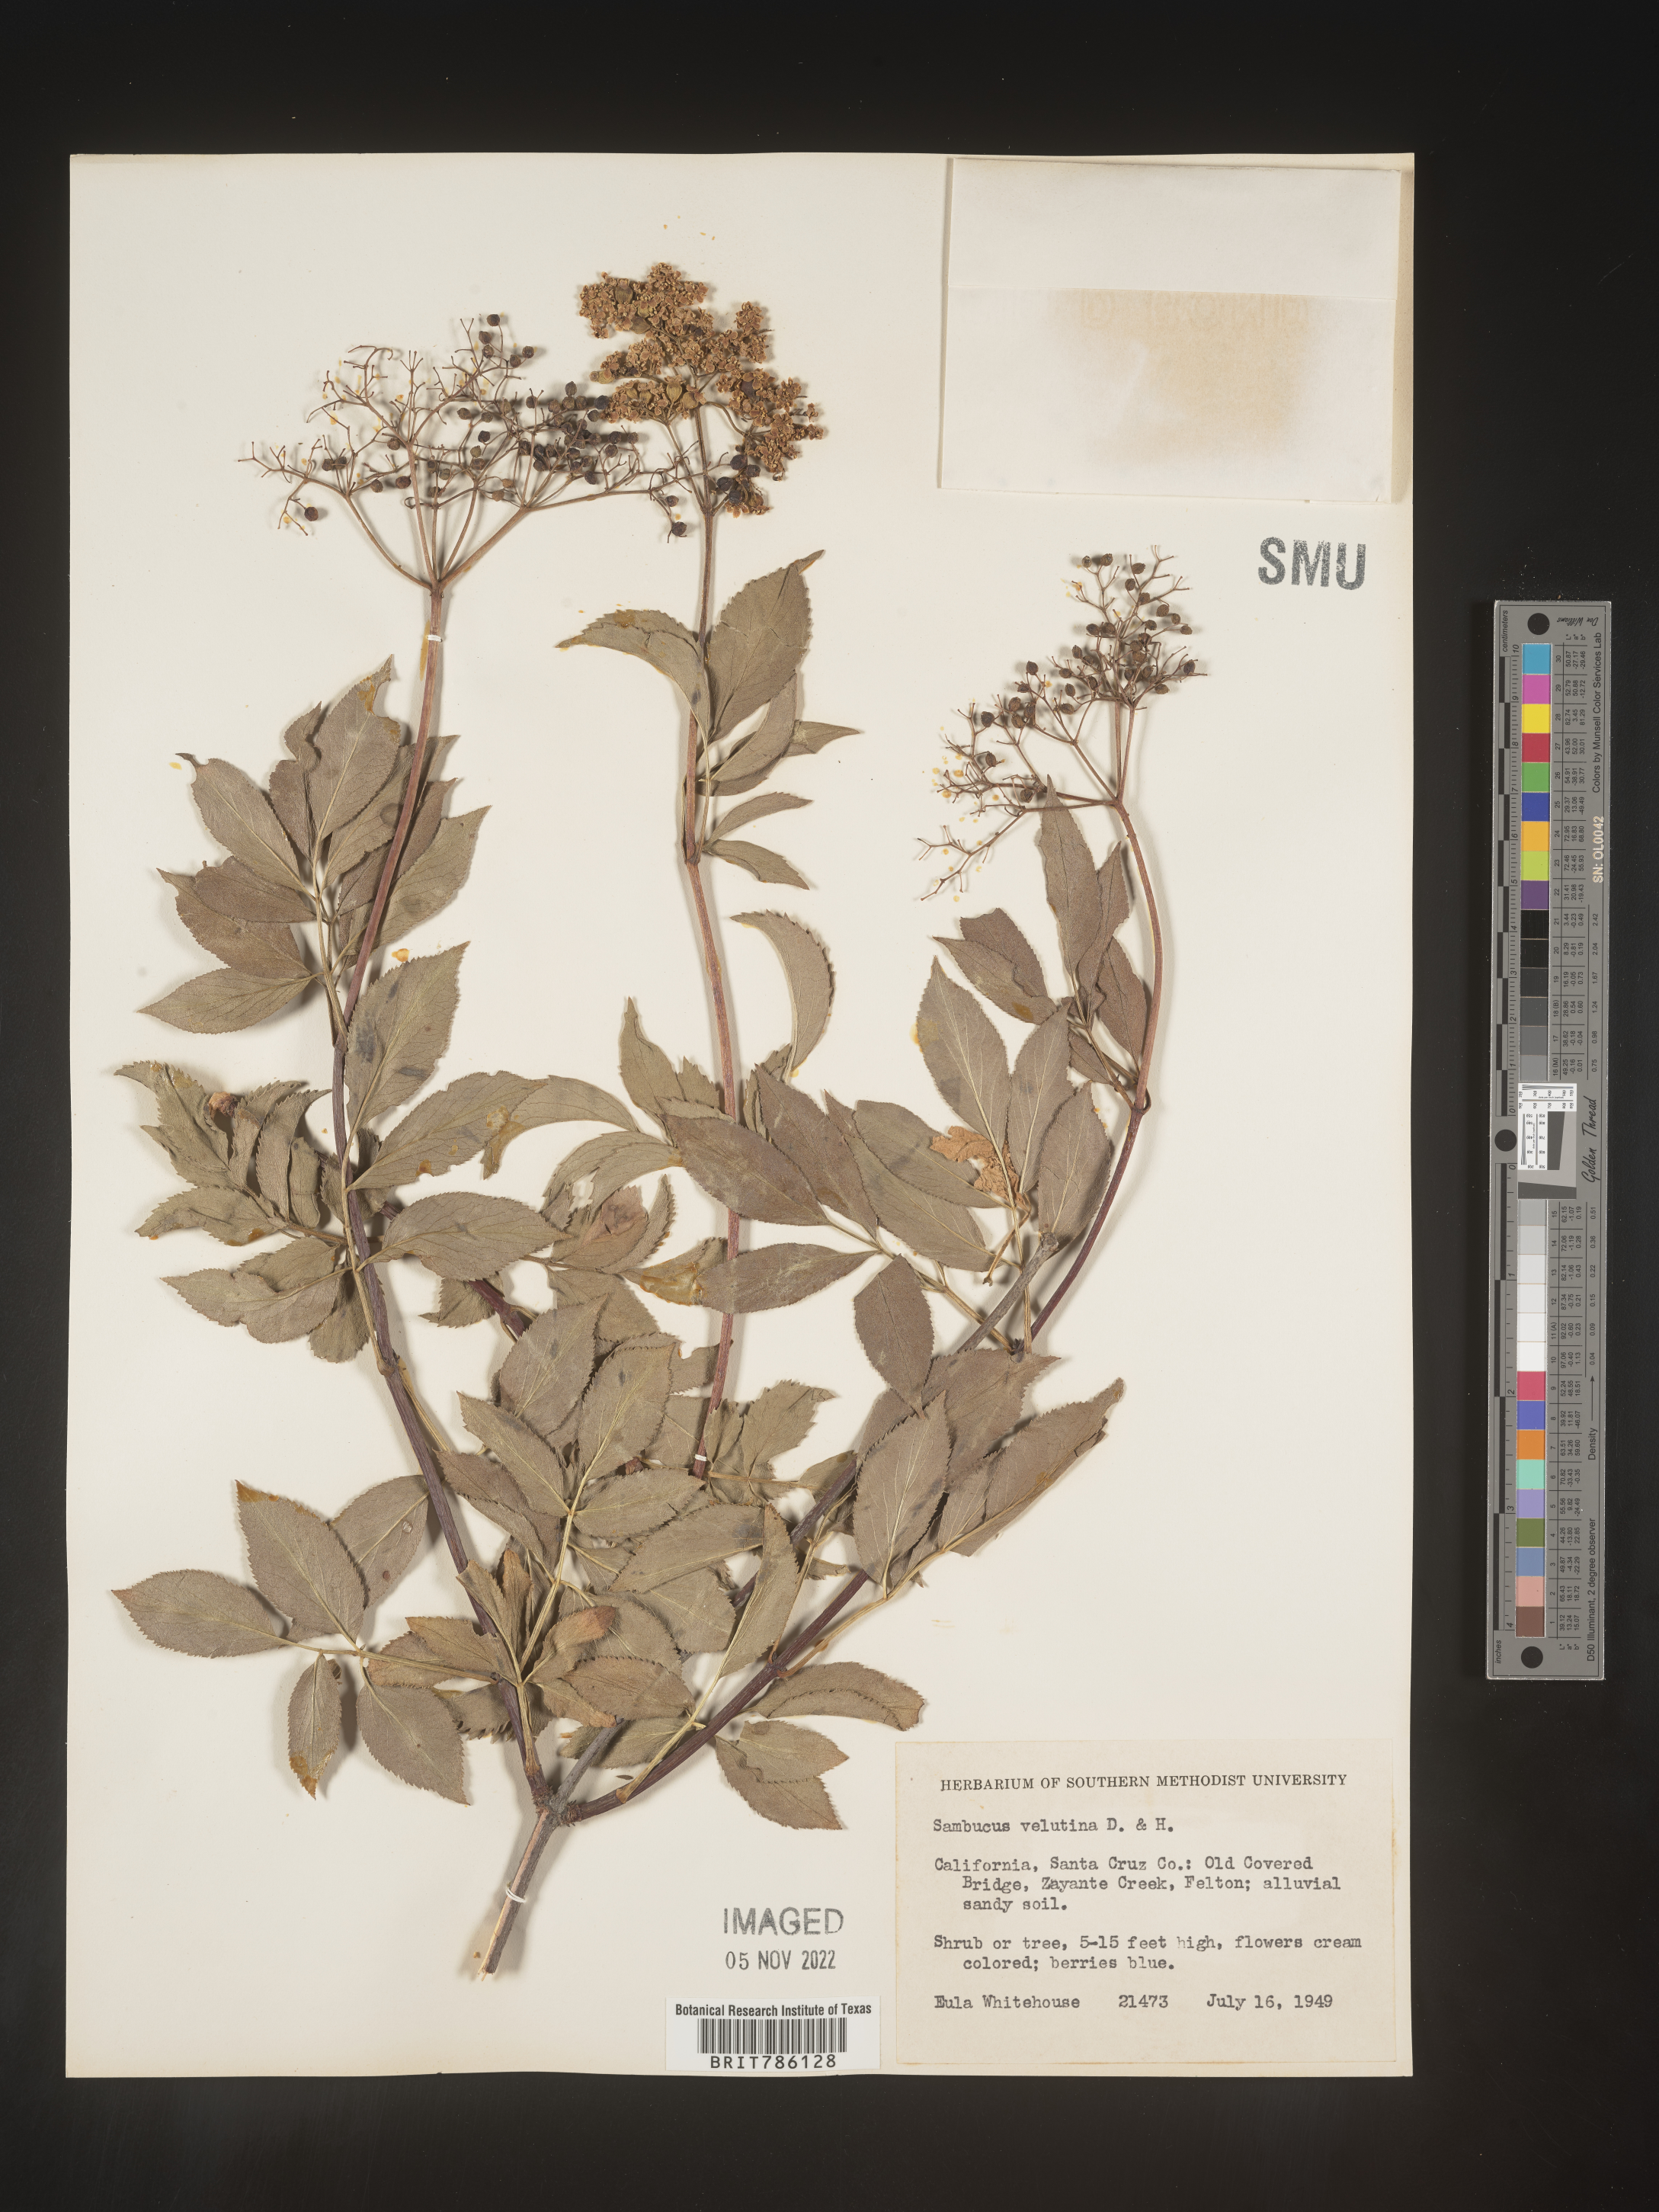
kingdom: Plantae
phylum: Tracheophyta
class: Magnoliopsida
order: Dipsacales
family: Viburnaceae
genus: Sambucus
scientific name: Sambucus
